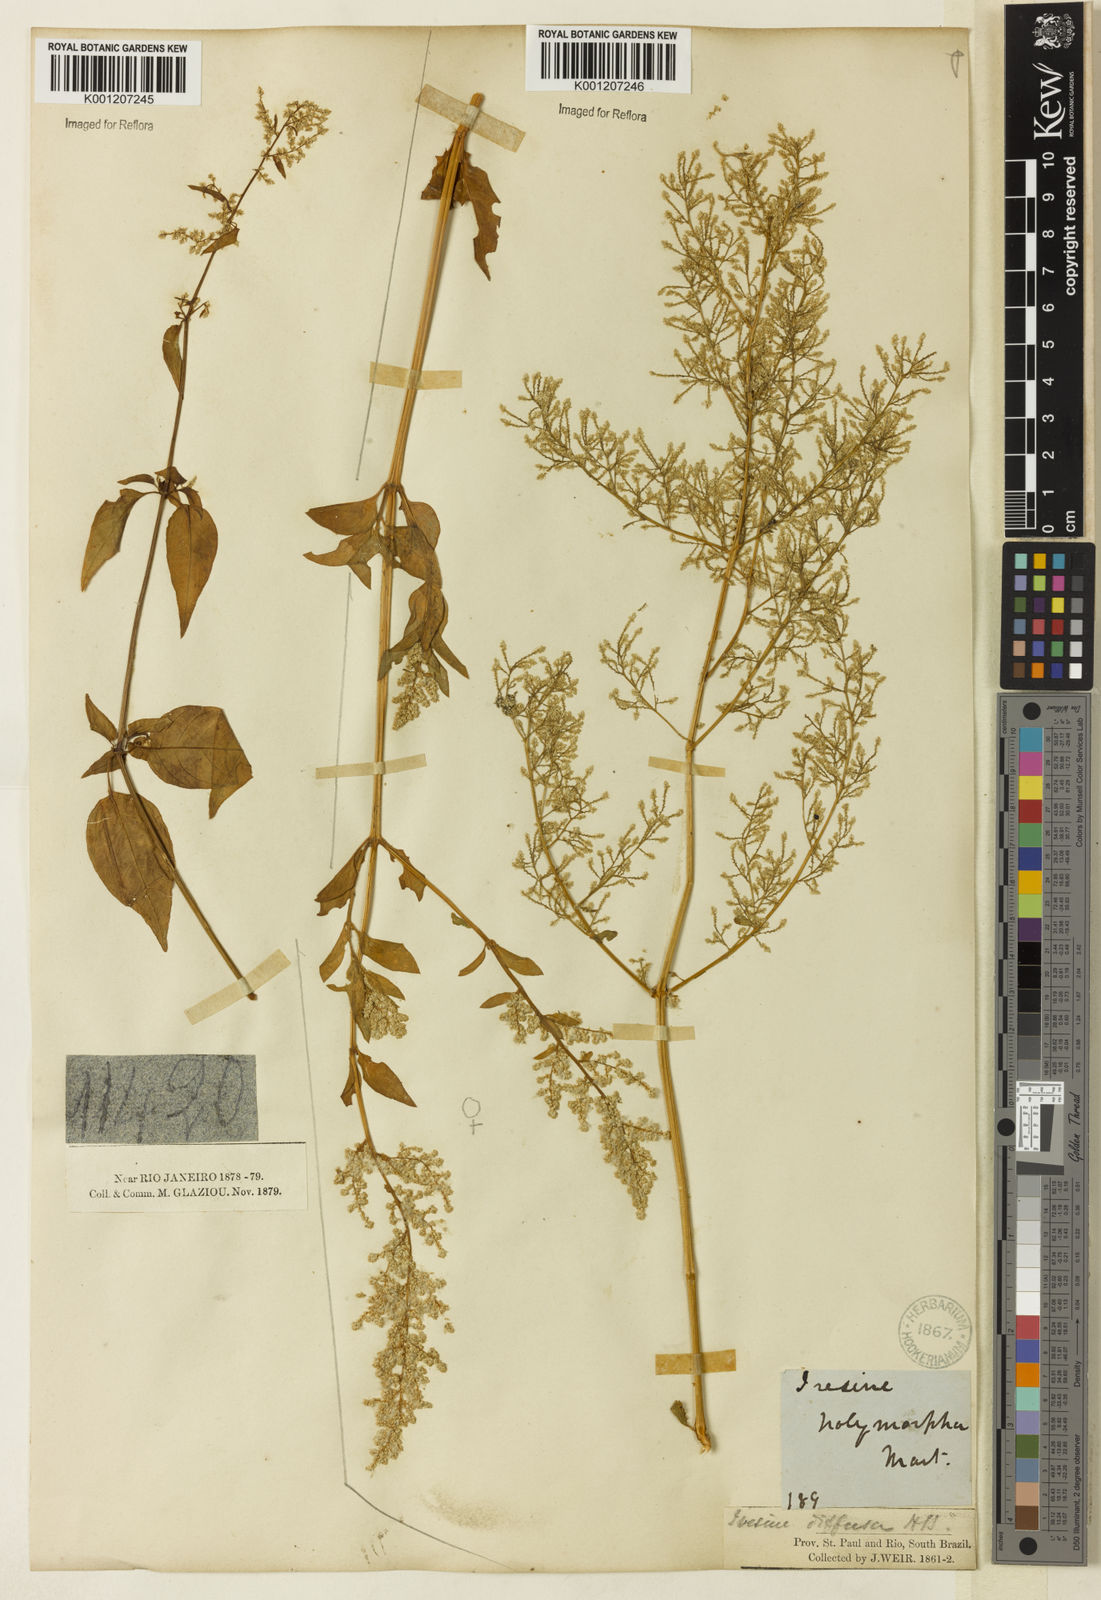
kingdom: Plantae
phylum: Tracheophyta
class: Magnoliopsida
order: Caryophyllales
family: Amaranthaceae
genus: Iresine
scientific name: Iresine rhizomatosa
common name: Juda's-bush
